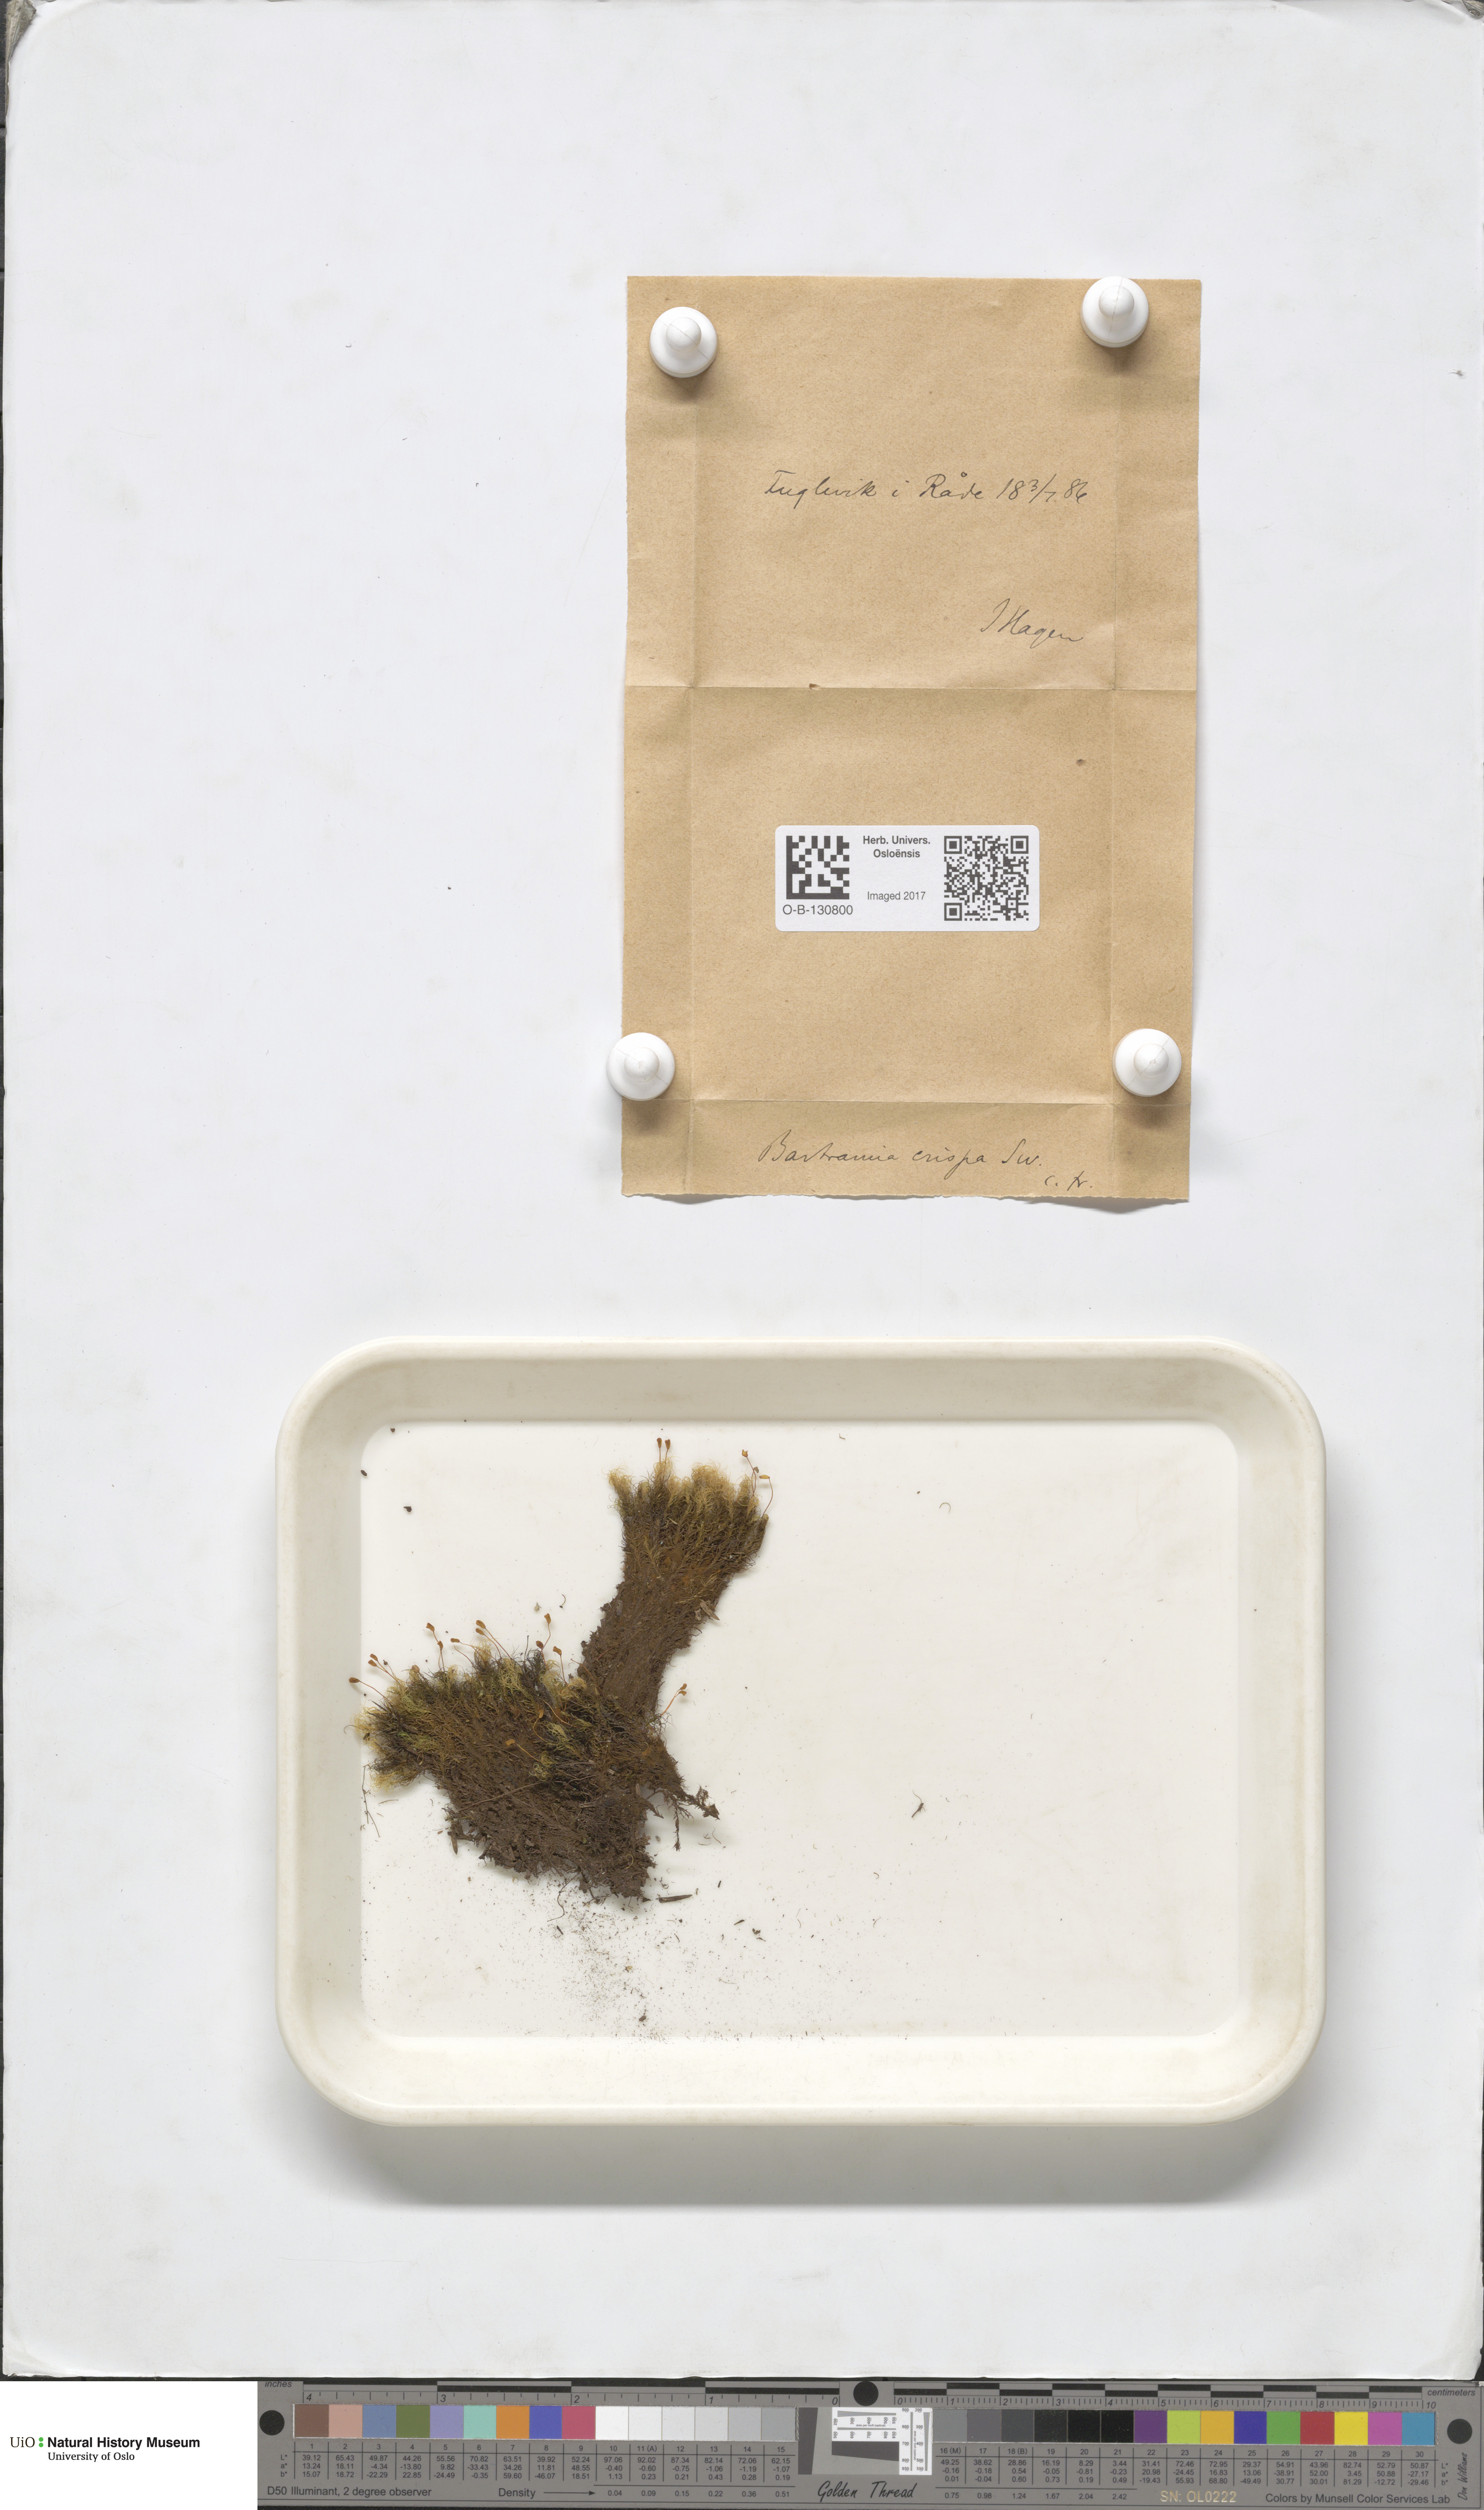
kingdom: Plantae
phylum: Bryophyta
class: Bryopsida
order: Bartramiales
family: Bartramiaceae
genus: Bartramia
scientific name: Bartramia pomiformis
